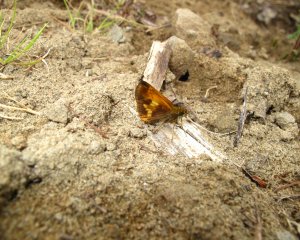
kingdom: Animalia
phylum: Arthropoda
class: Insecta
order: Lepidoptera
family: Hesperiidae
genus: Lon
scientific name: Lon hobomok
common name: Hobomok Skipper
